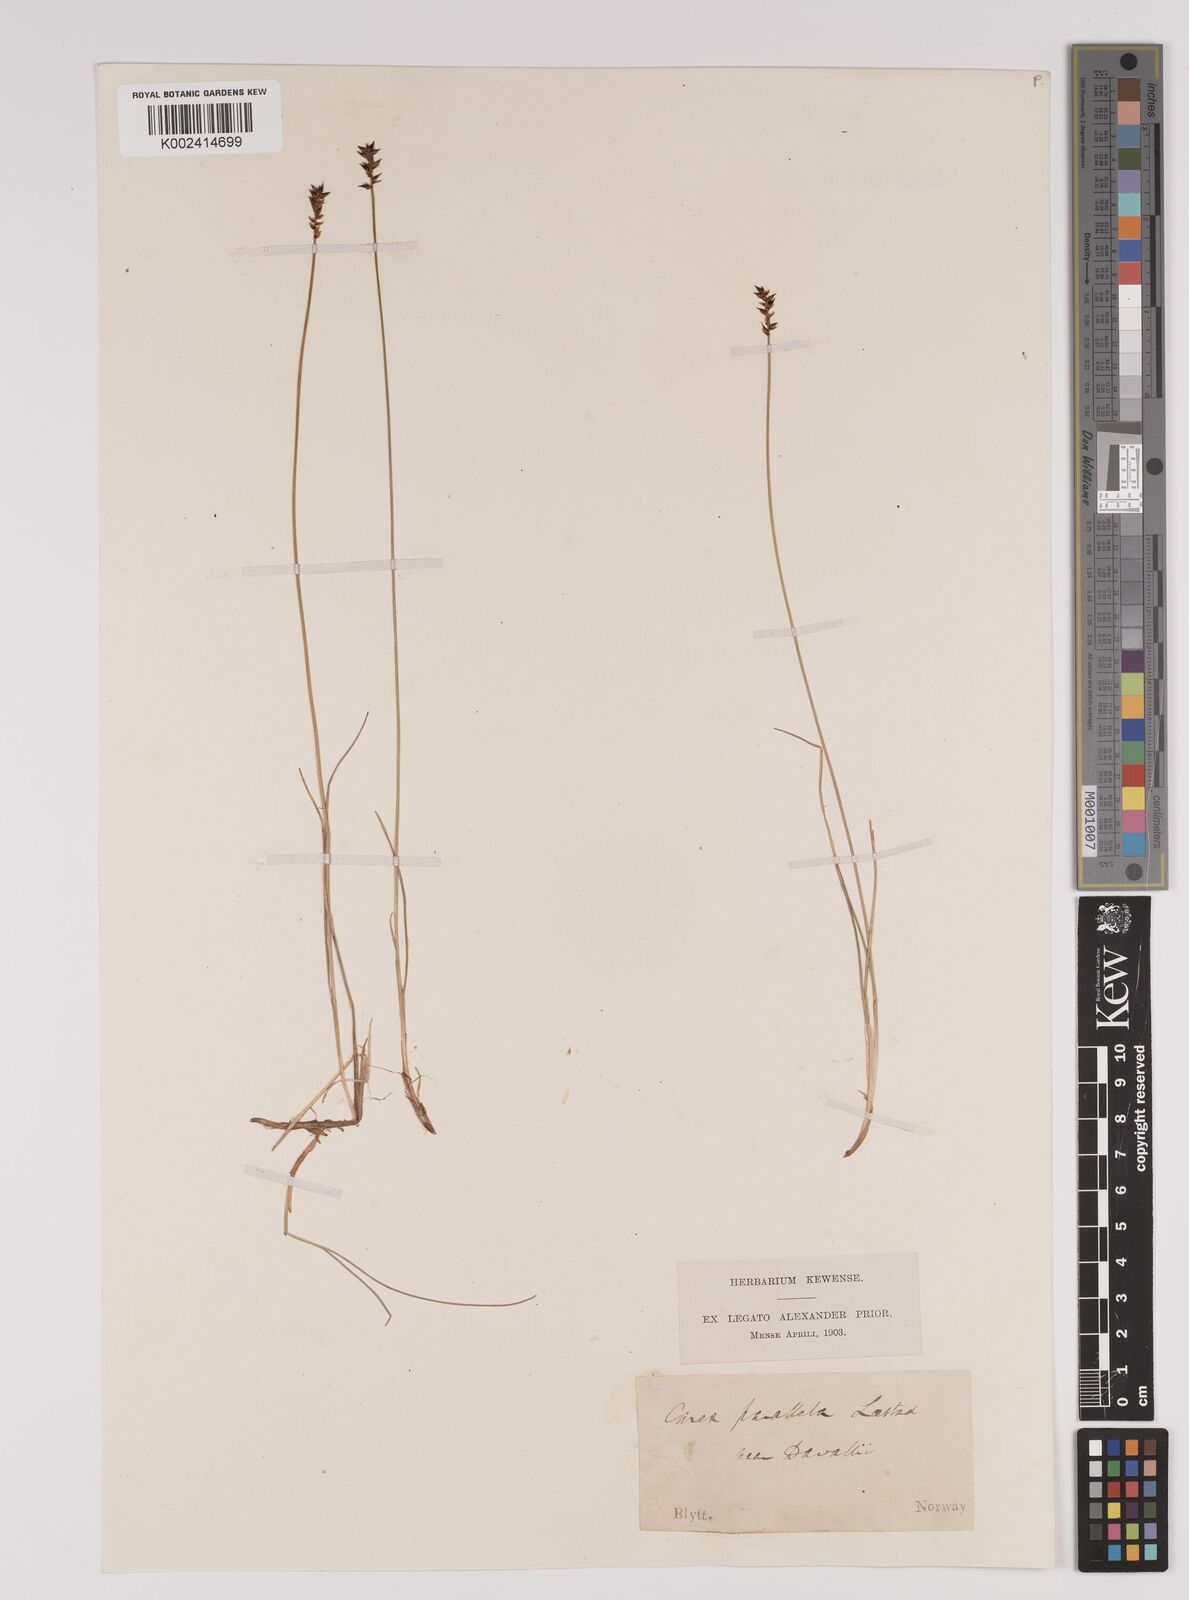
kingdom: Plantae
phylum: Tracheophyta
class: Liliopsida
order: Poales
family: Cyperaceae
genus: Carex
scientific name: Carex parallela
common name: Parallel sedge
